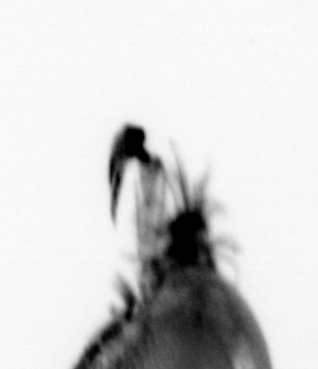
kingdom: Animalia
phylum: Annelida
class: Polychaeta
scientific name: Polychaeta
